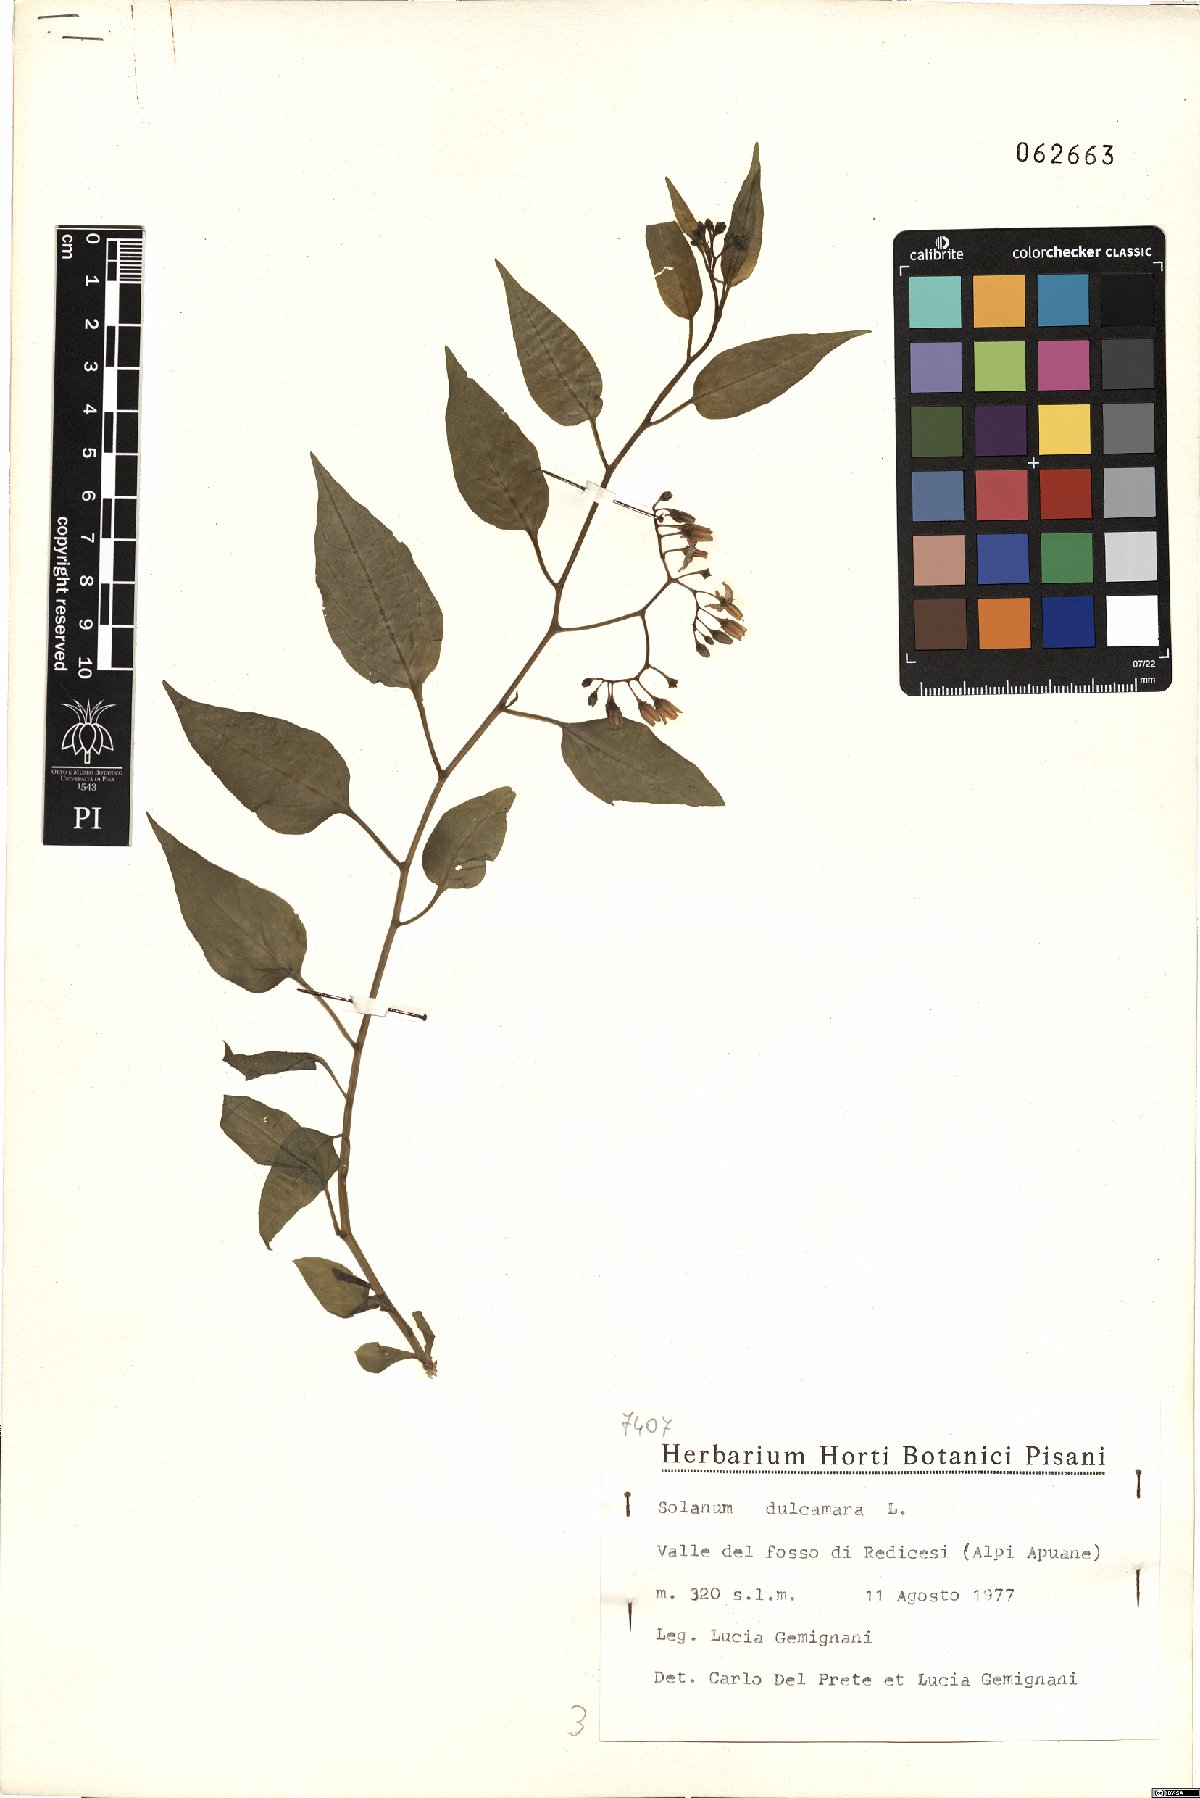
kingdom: Plantae
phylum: Tracheophyta
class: Magnoliopsida
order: Solanales
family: Solanaceae
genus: Solanum
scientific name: Solanum dulcamara
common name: Climbing nightshade
